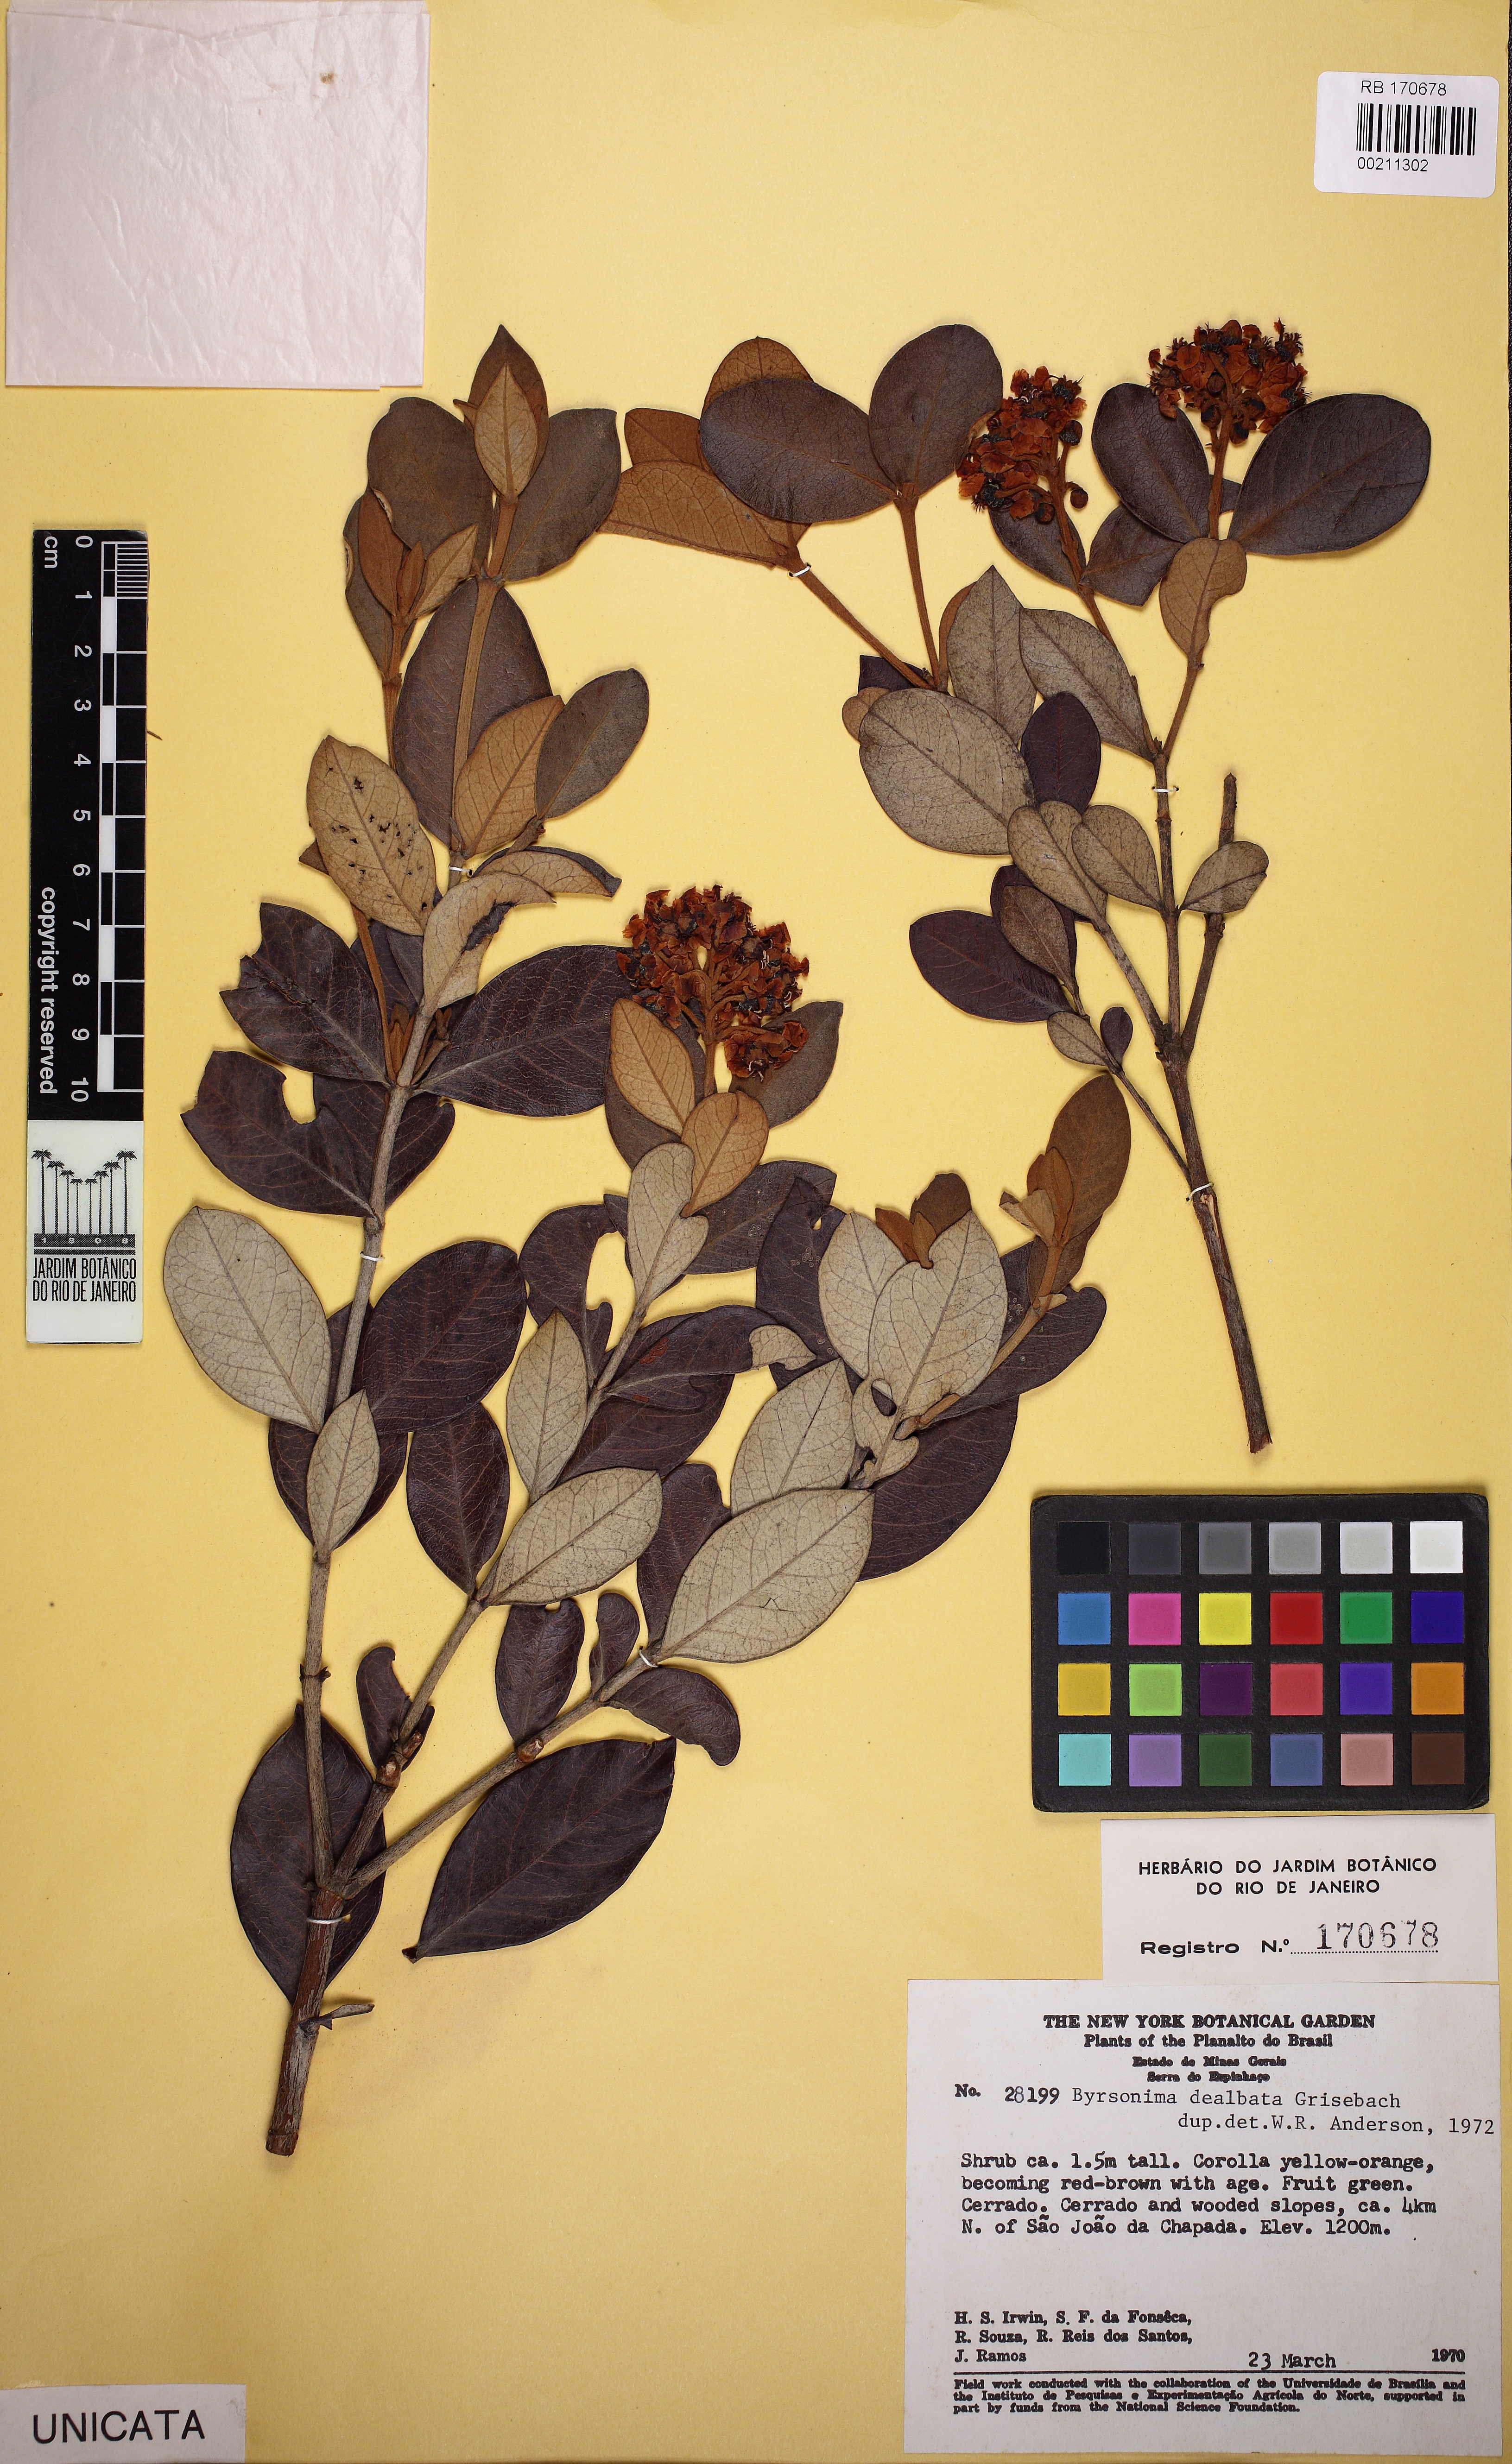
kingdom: Plantae
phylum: Tracheophyta
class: Magnoliopsida
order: Malpighiales
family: Malpighiaceae
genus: Byrsonima
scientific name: Byrsonima dealbata
